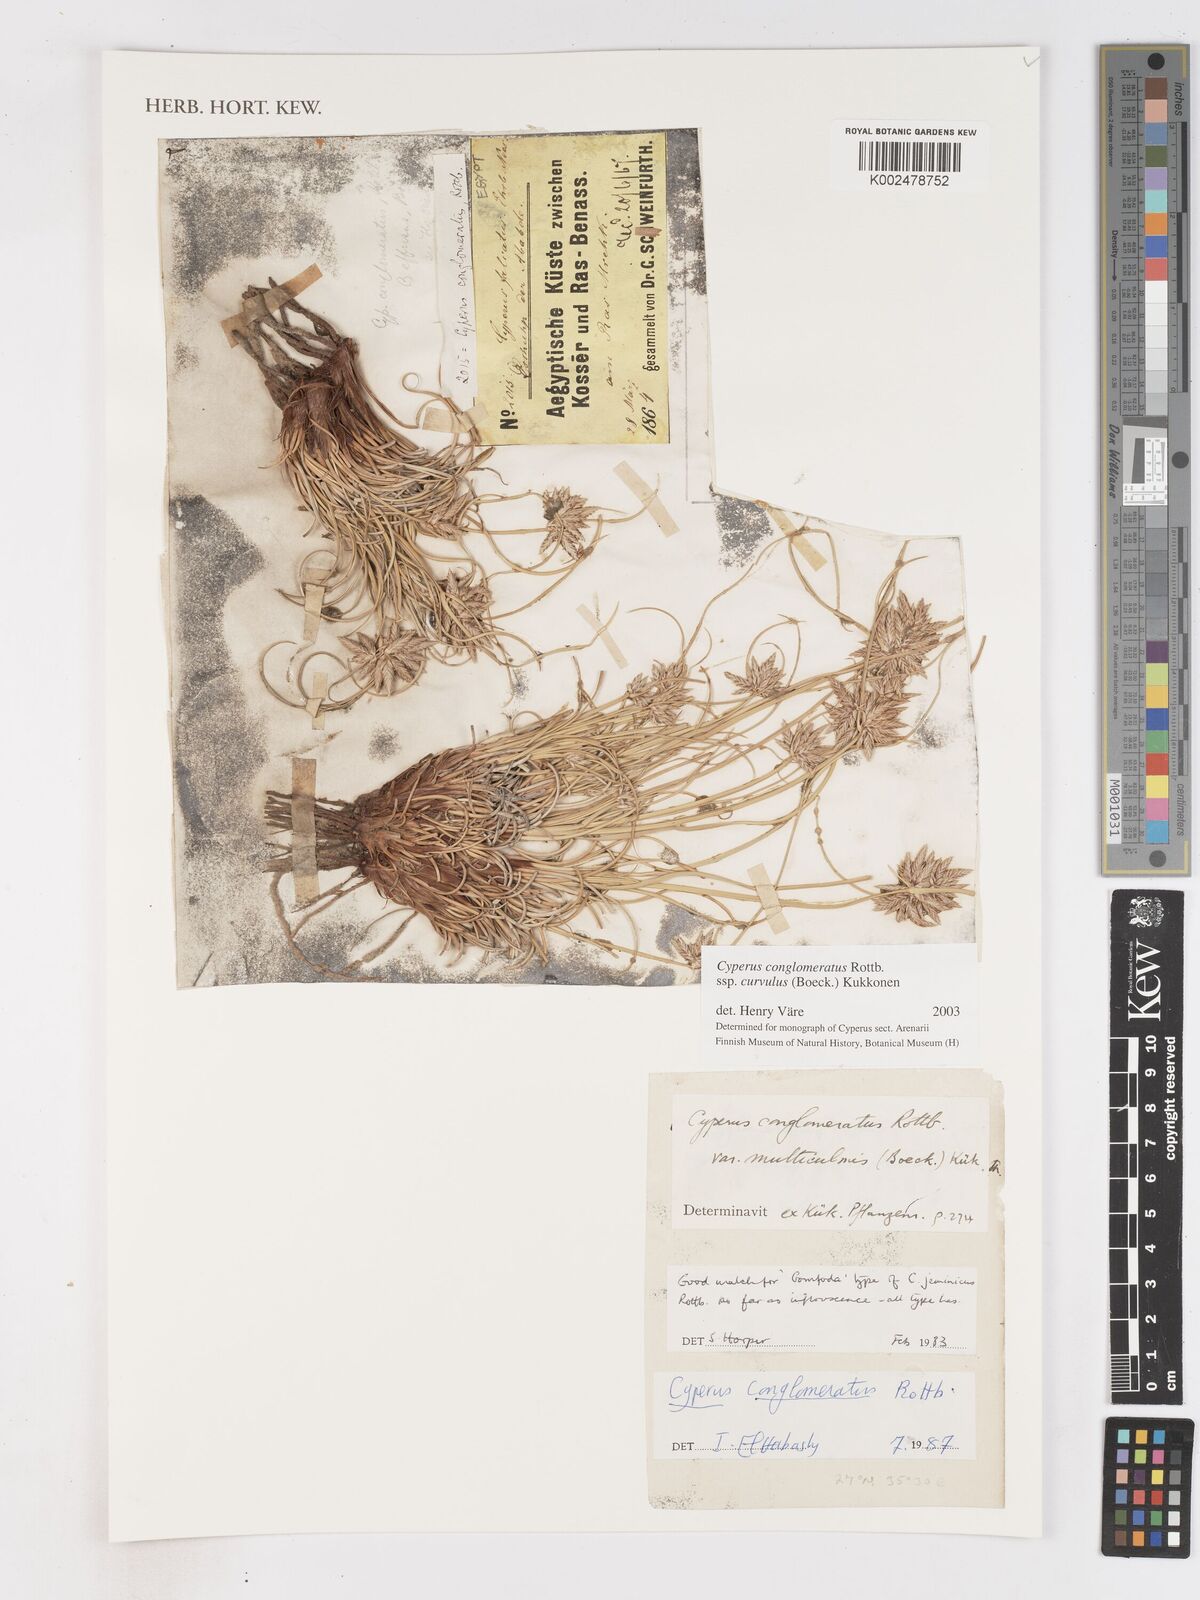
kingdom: Plantae
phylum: Tracheophyta
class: Liliopsida
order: Poales
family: Cyperaceae
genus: Cyperus
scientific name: Cyperus conglomeratus
